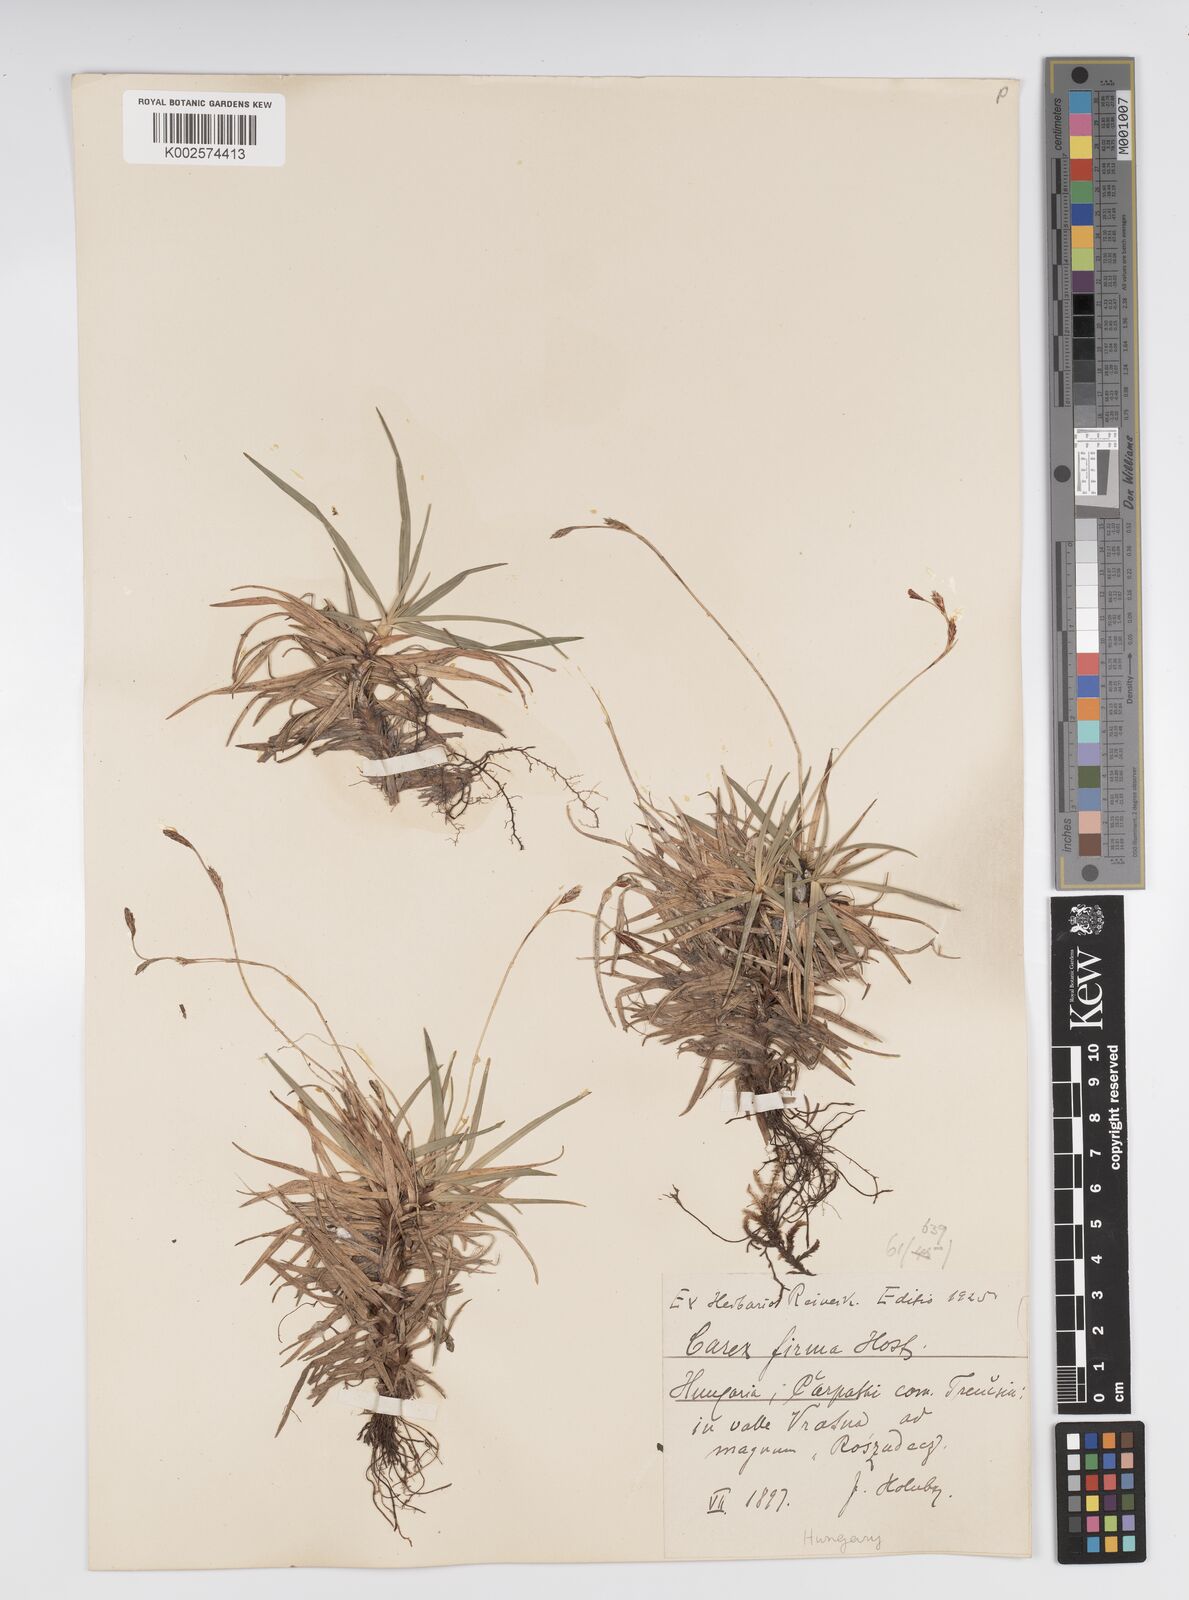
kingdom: Plantae
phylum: Tracheophyta
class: Liliopsida
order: Poales
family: Cyperaceae
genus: Carex
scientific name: Carex firma
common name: Dwarf pillow sedge
